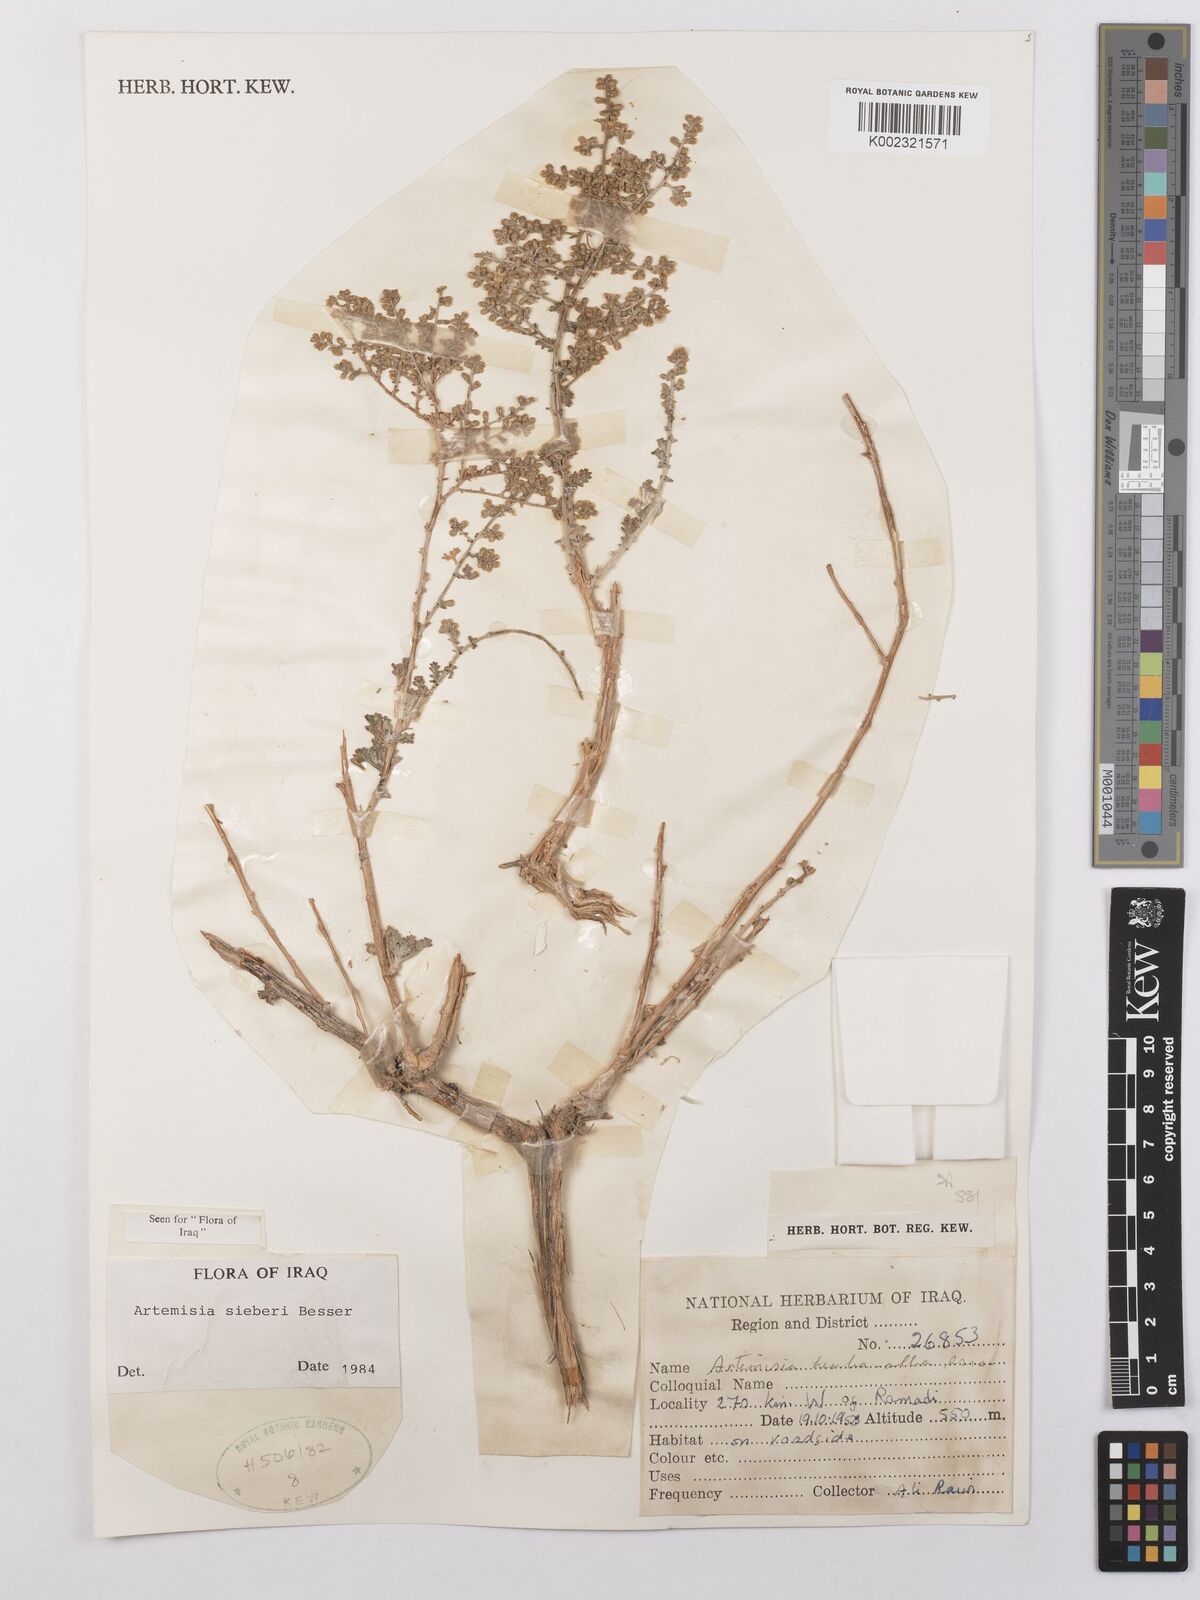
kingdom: Plantae
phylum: Tracheophyta
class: Magnoliopsida
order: Asterales
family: Asteraceae
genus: Artemisia
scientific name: Artemisia sieberi
